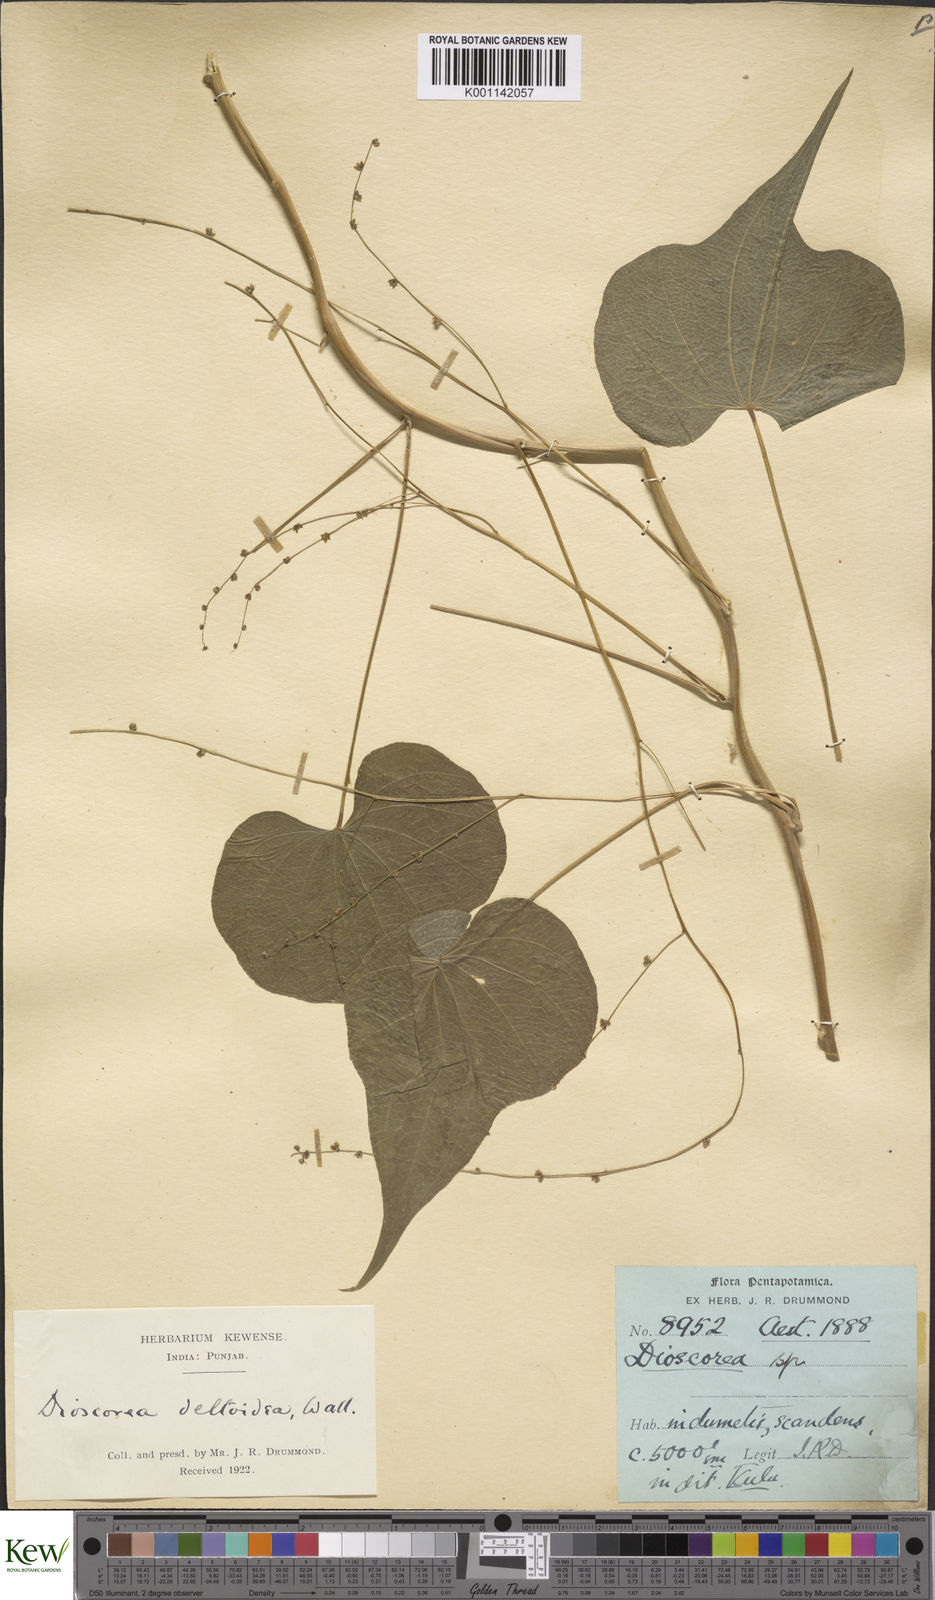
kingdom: Plantae
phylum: Tracheophyta
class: Liliopsida
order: Dioscoreales
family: Dioscoreaceae
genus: Dioscorea
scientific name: Dioscorea deltoidea
